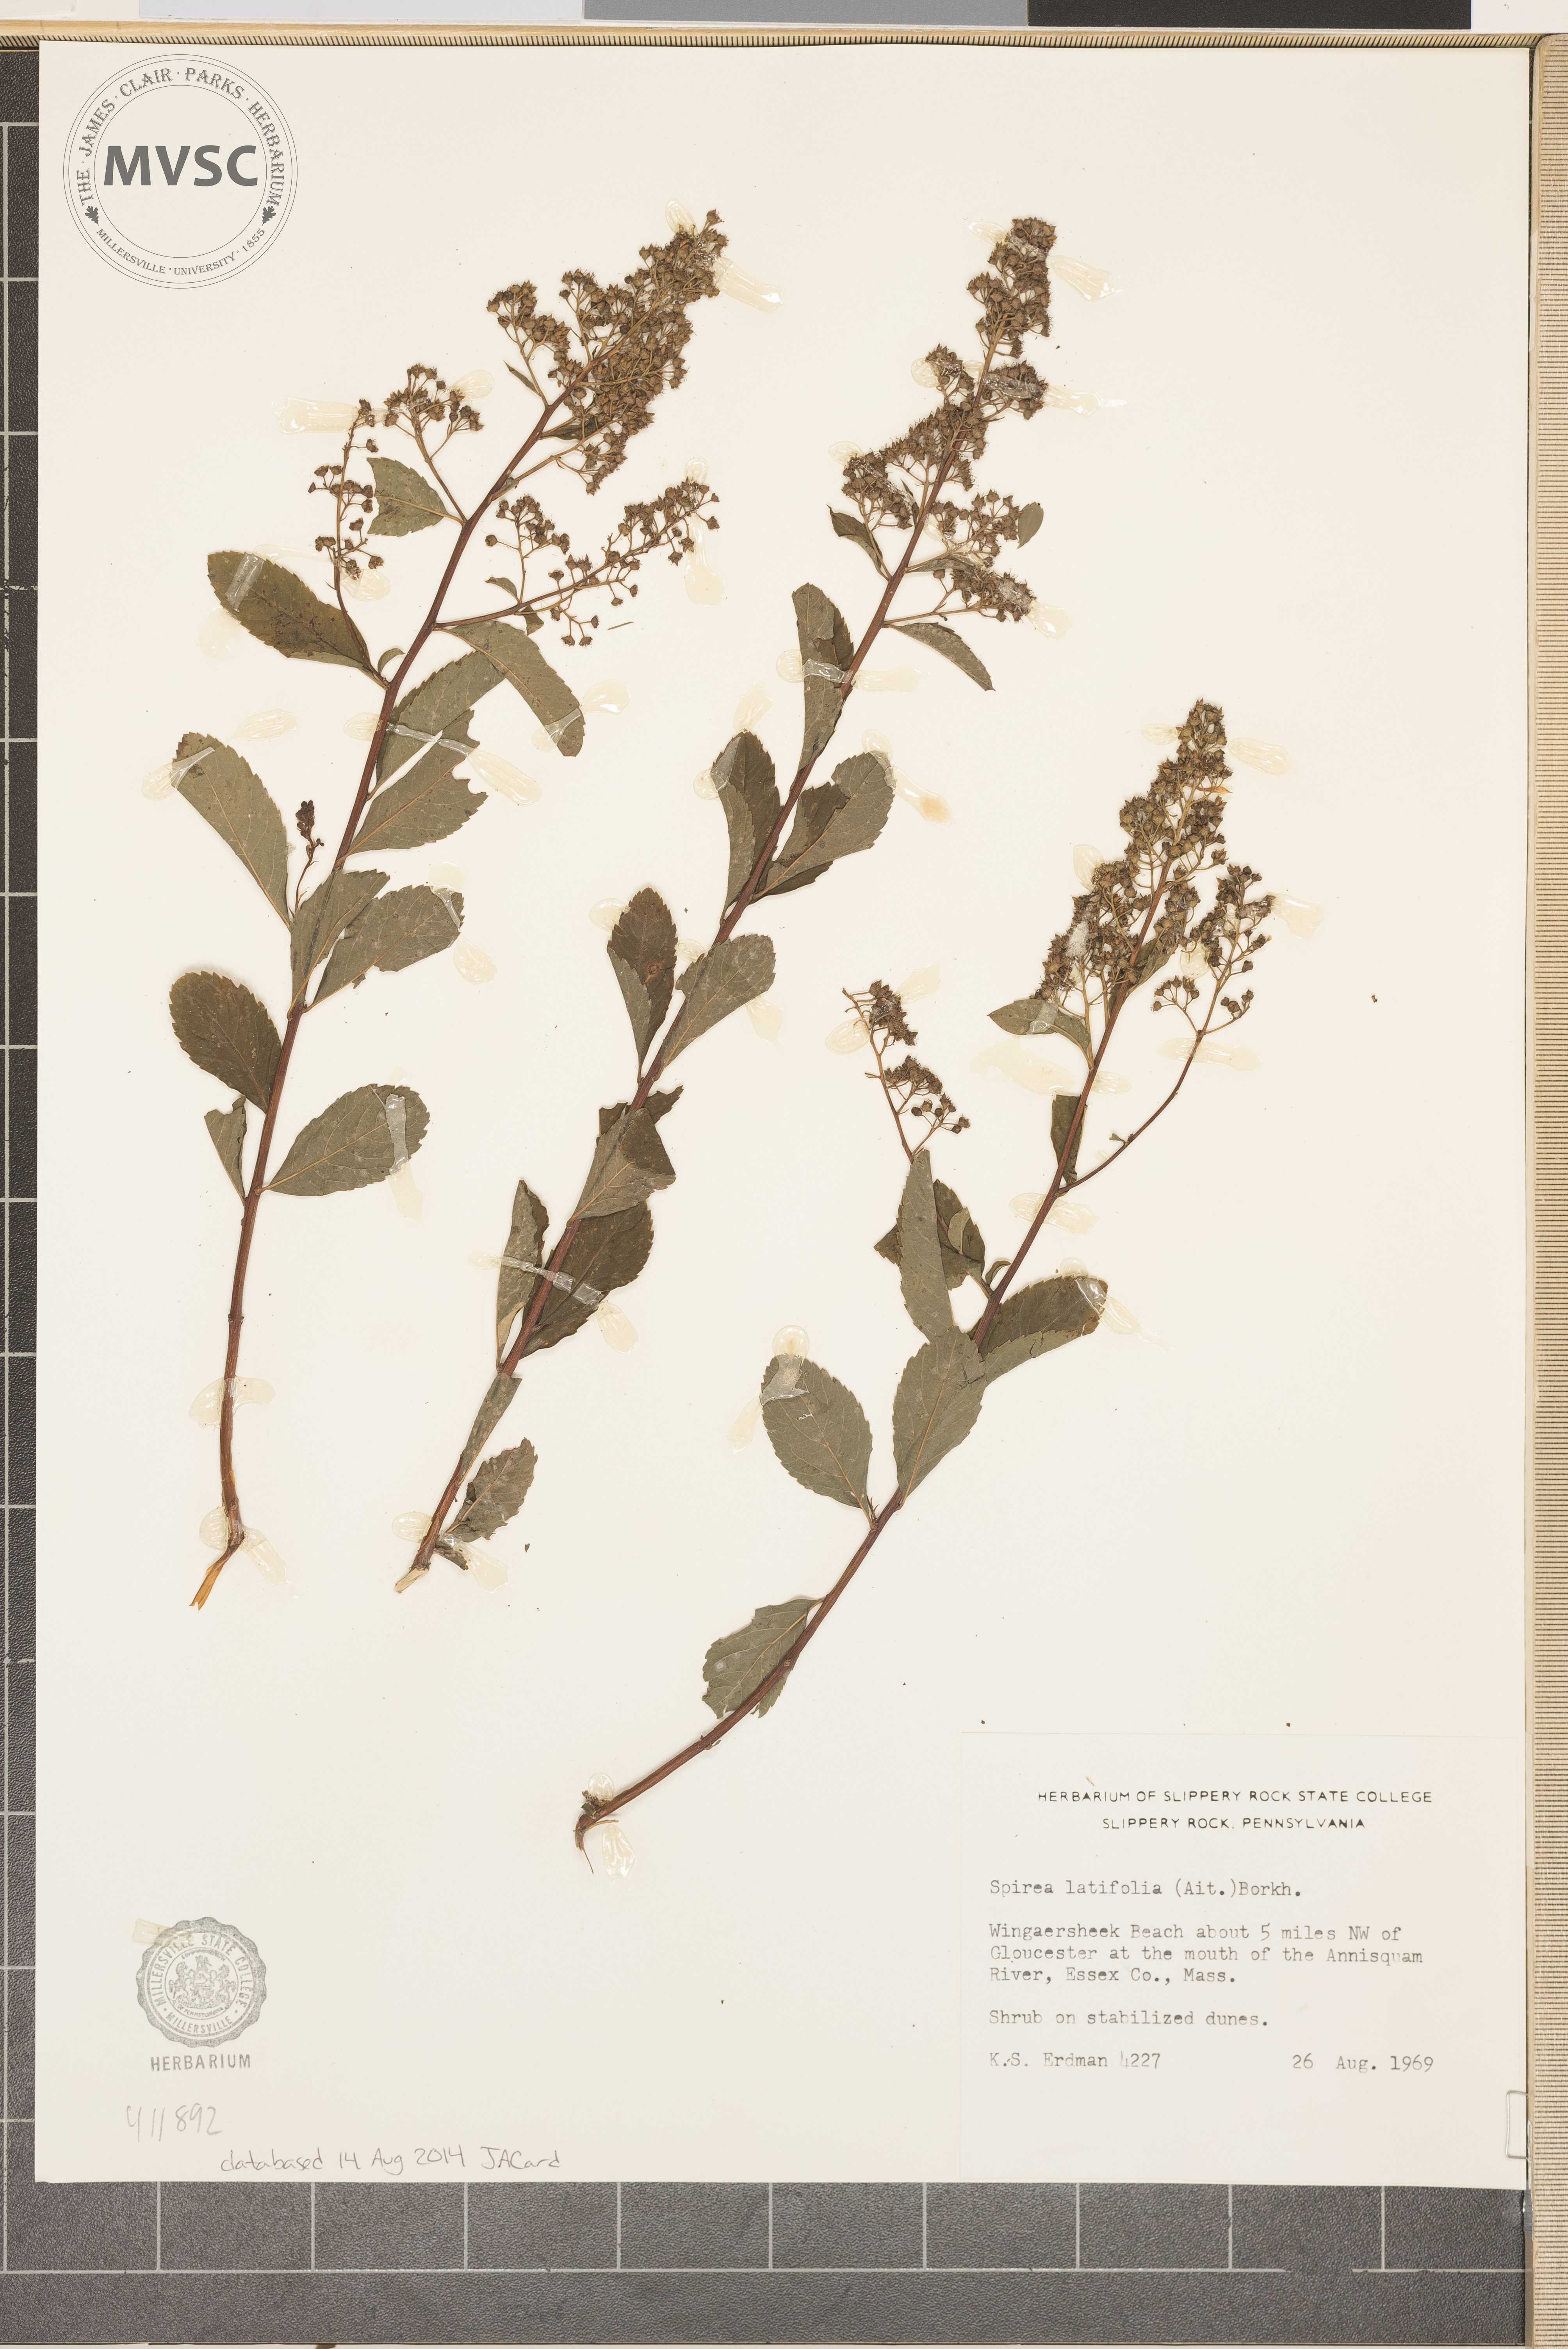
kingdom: Plantae
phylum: Tracheophyta
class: Magnoliopsida
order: Rosales
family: Rosaceae
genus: Spiraea
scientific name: Spiraea alba
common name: Pale bridewort
